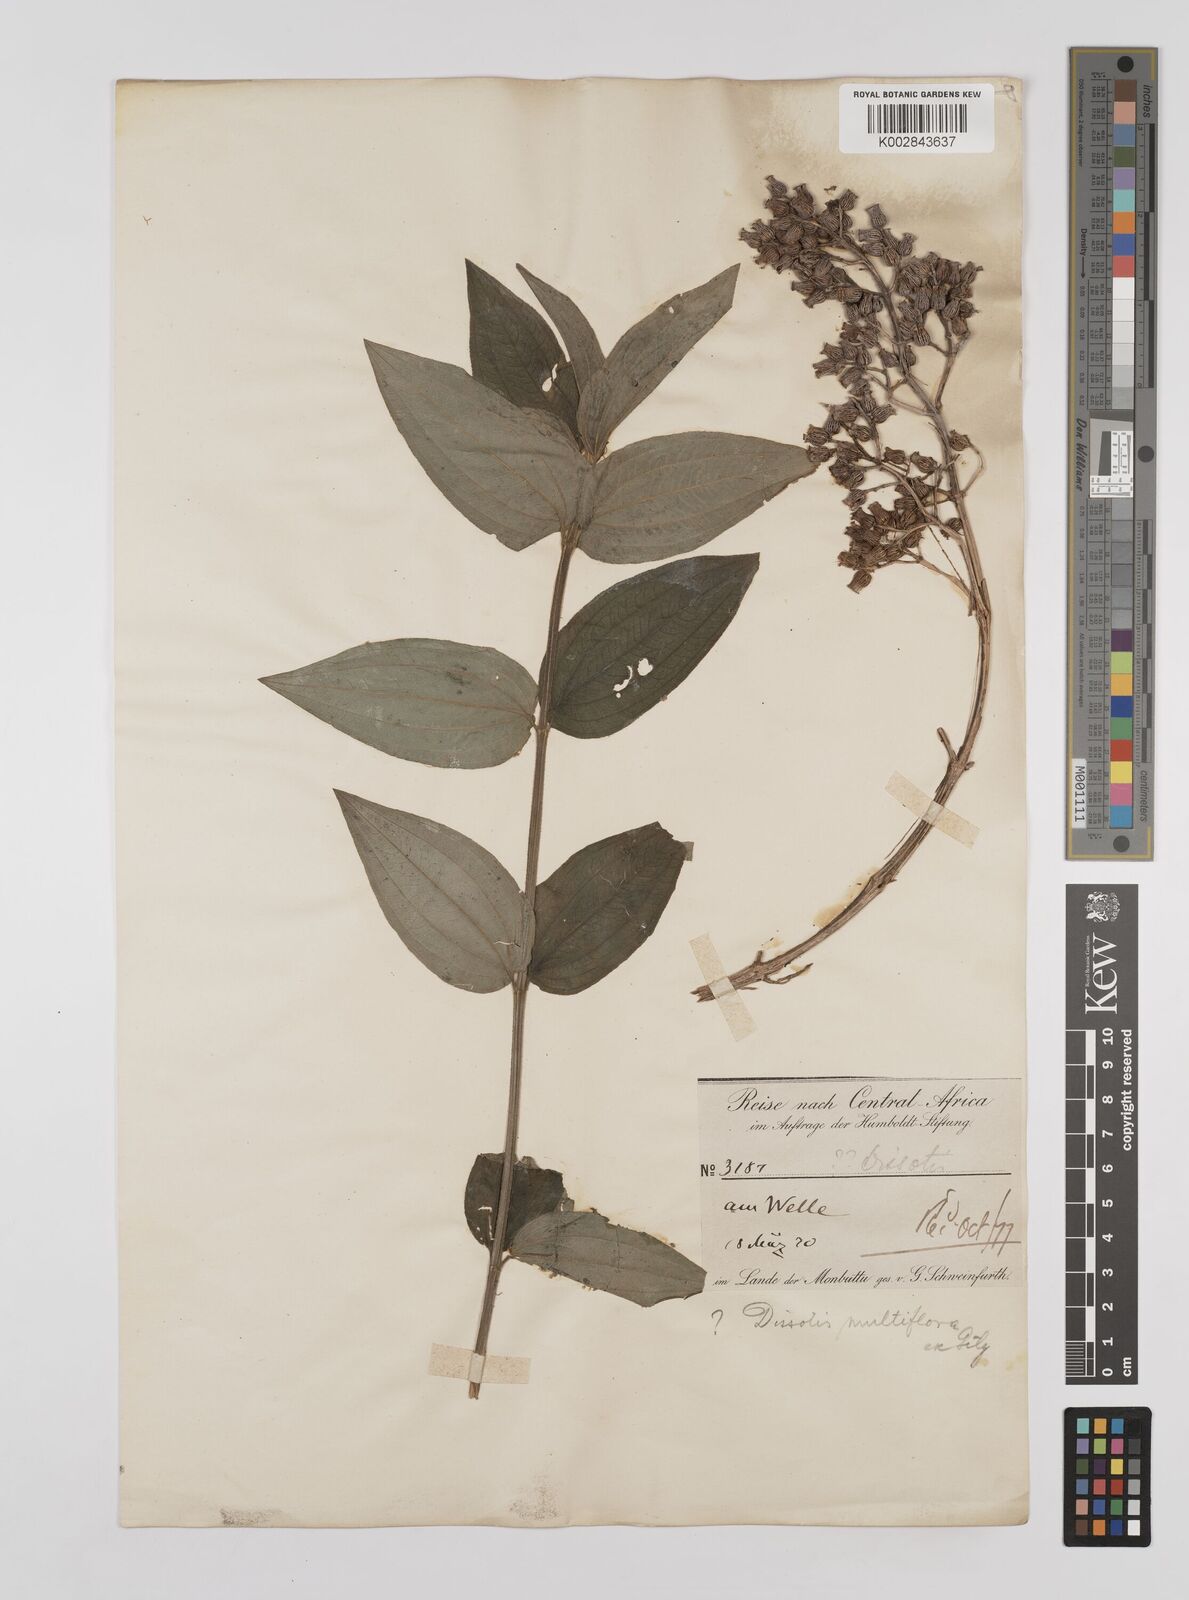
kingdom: Plantae
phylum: Tracheophyta
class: Magnoliopsida
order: Myrtales
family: Melastomataceae
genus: Dupineta
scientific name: Dupineta multiflora
